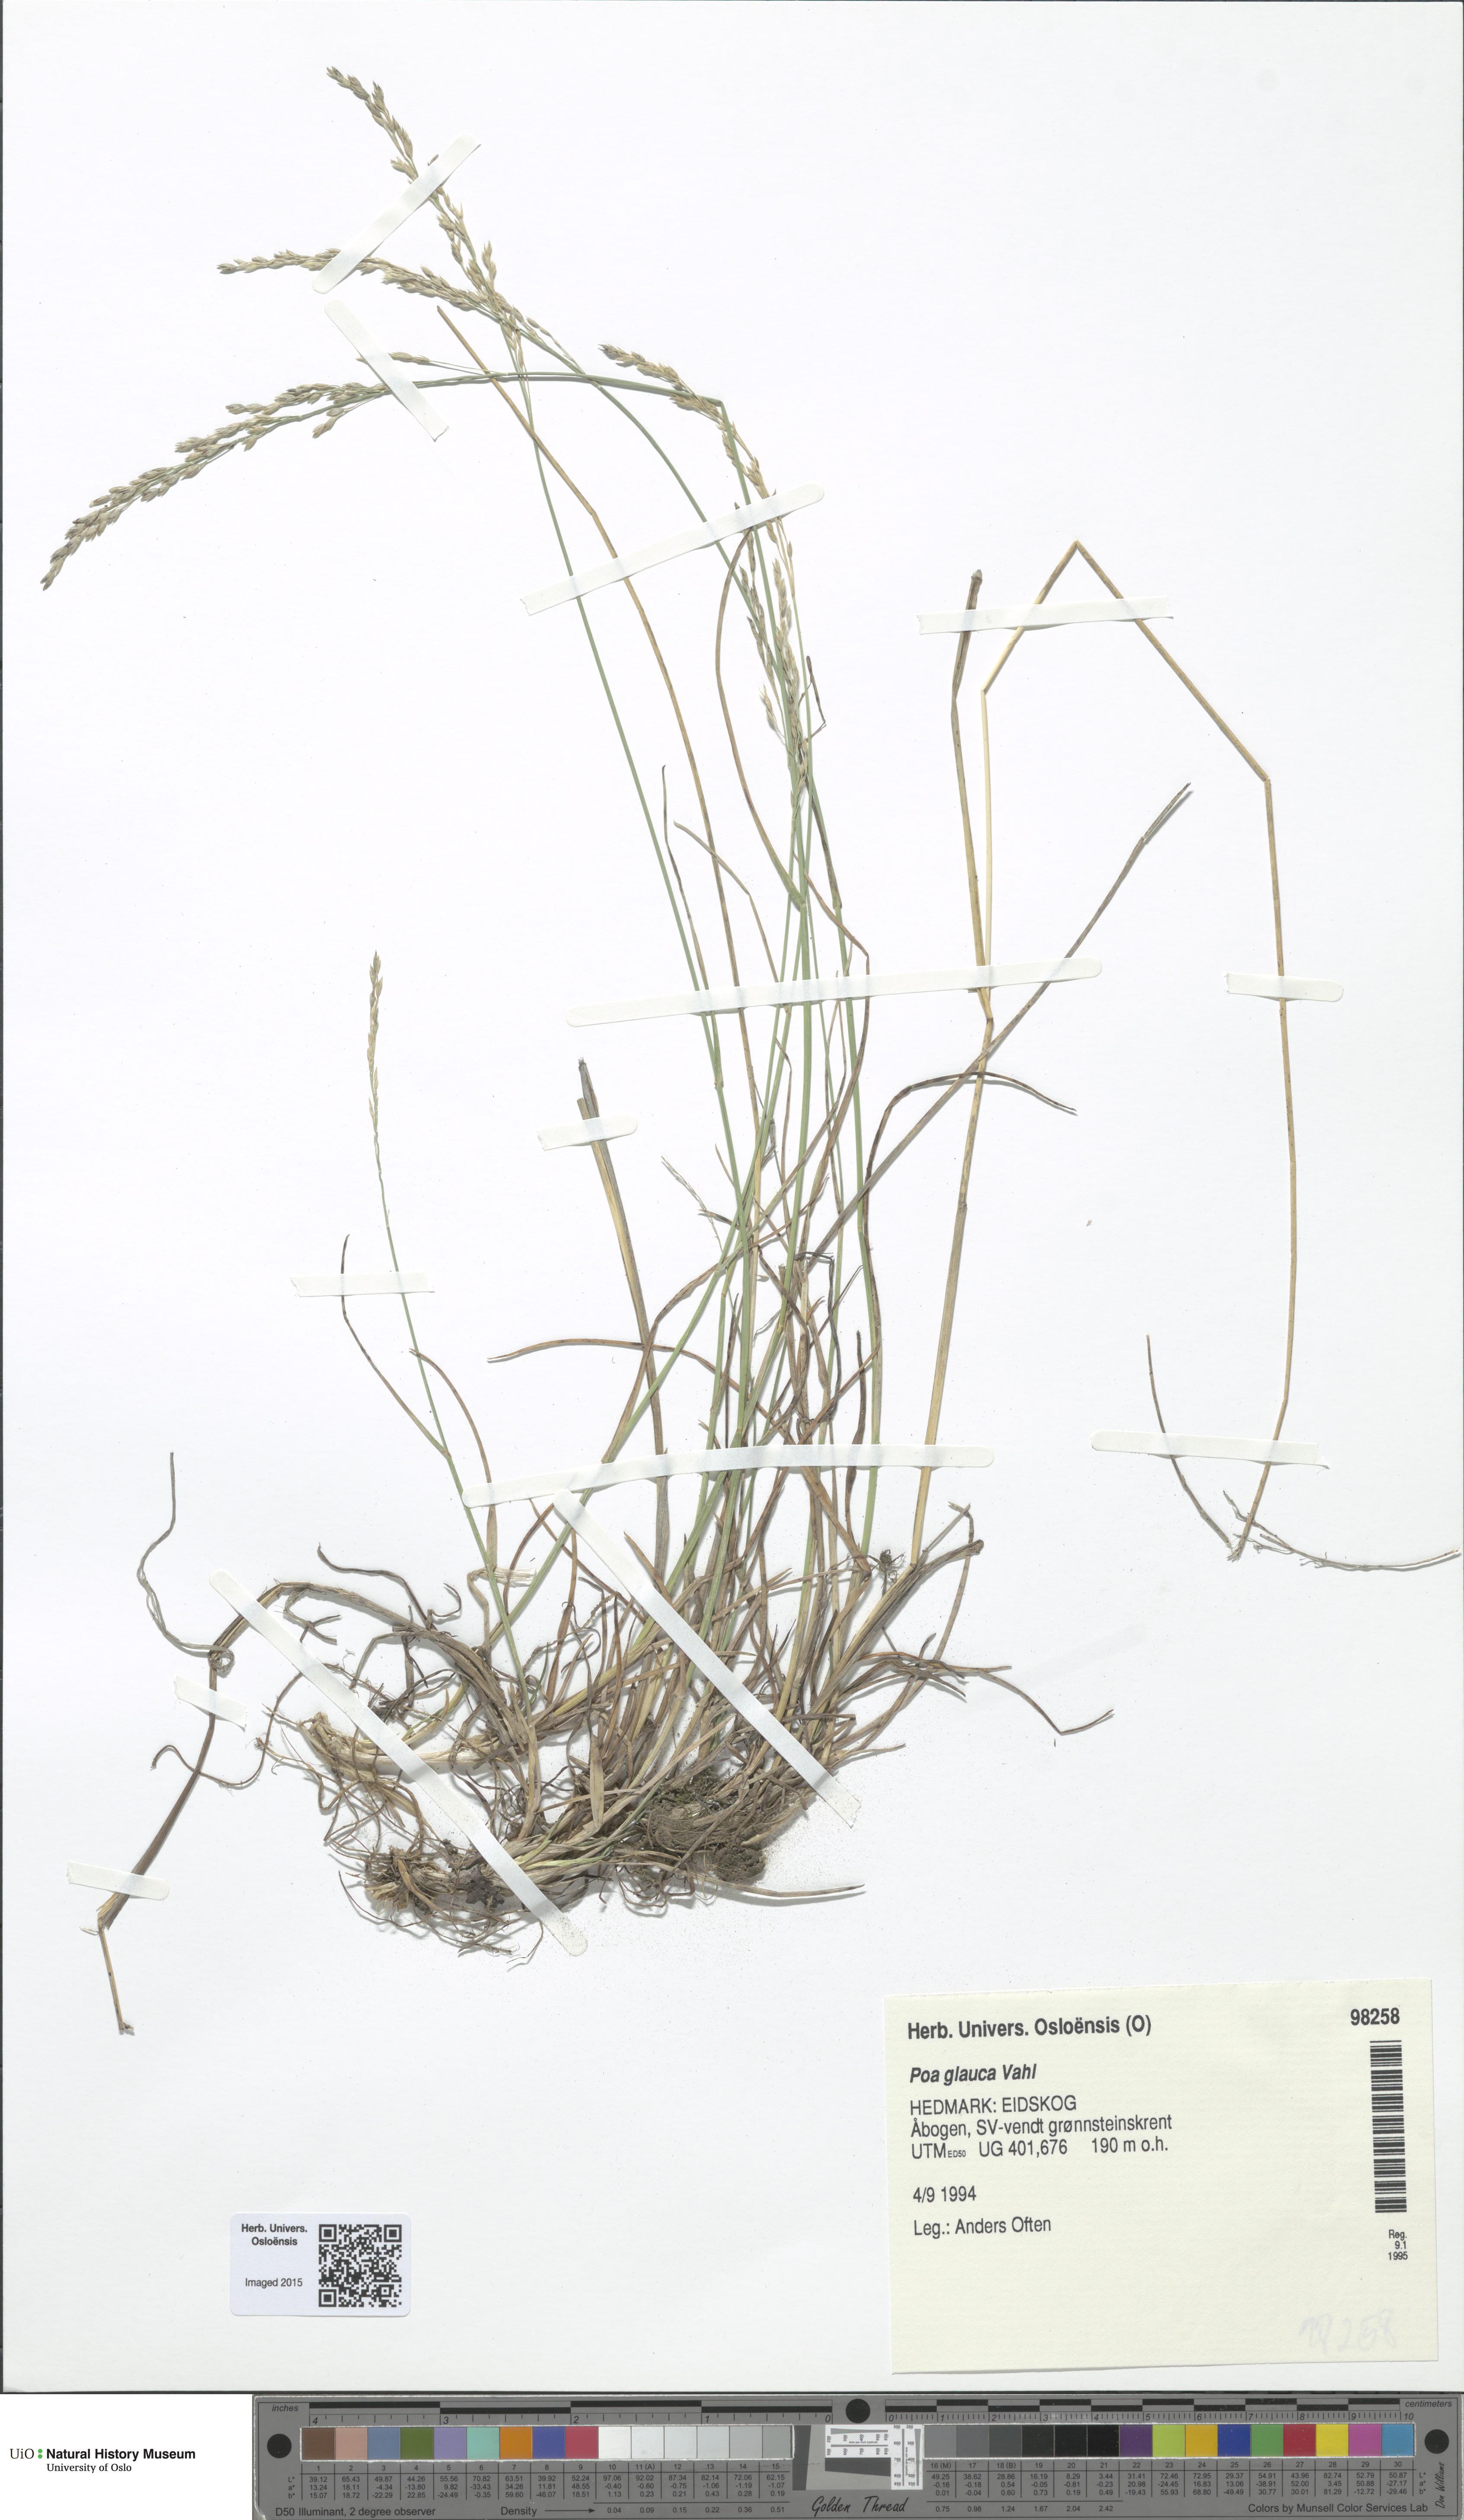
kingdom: Plantae
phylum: Tracheophyta
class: Liliopsida
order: Poales
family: Poaceae
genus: Poa
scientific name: Poa glauca
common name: Glaucous bluegrass
